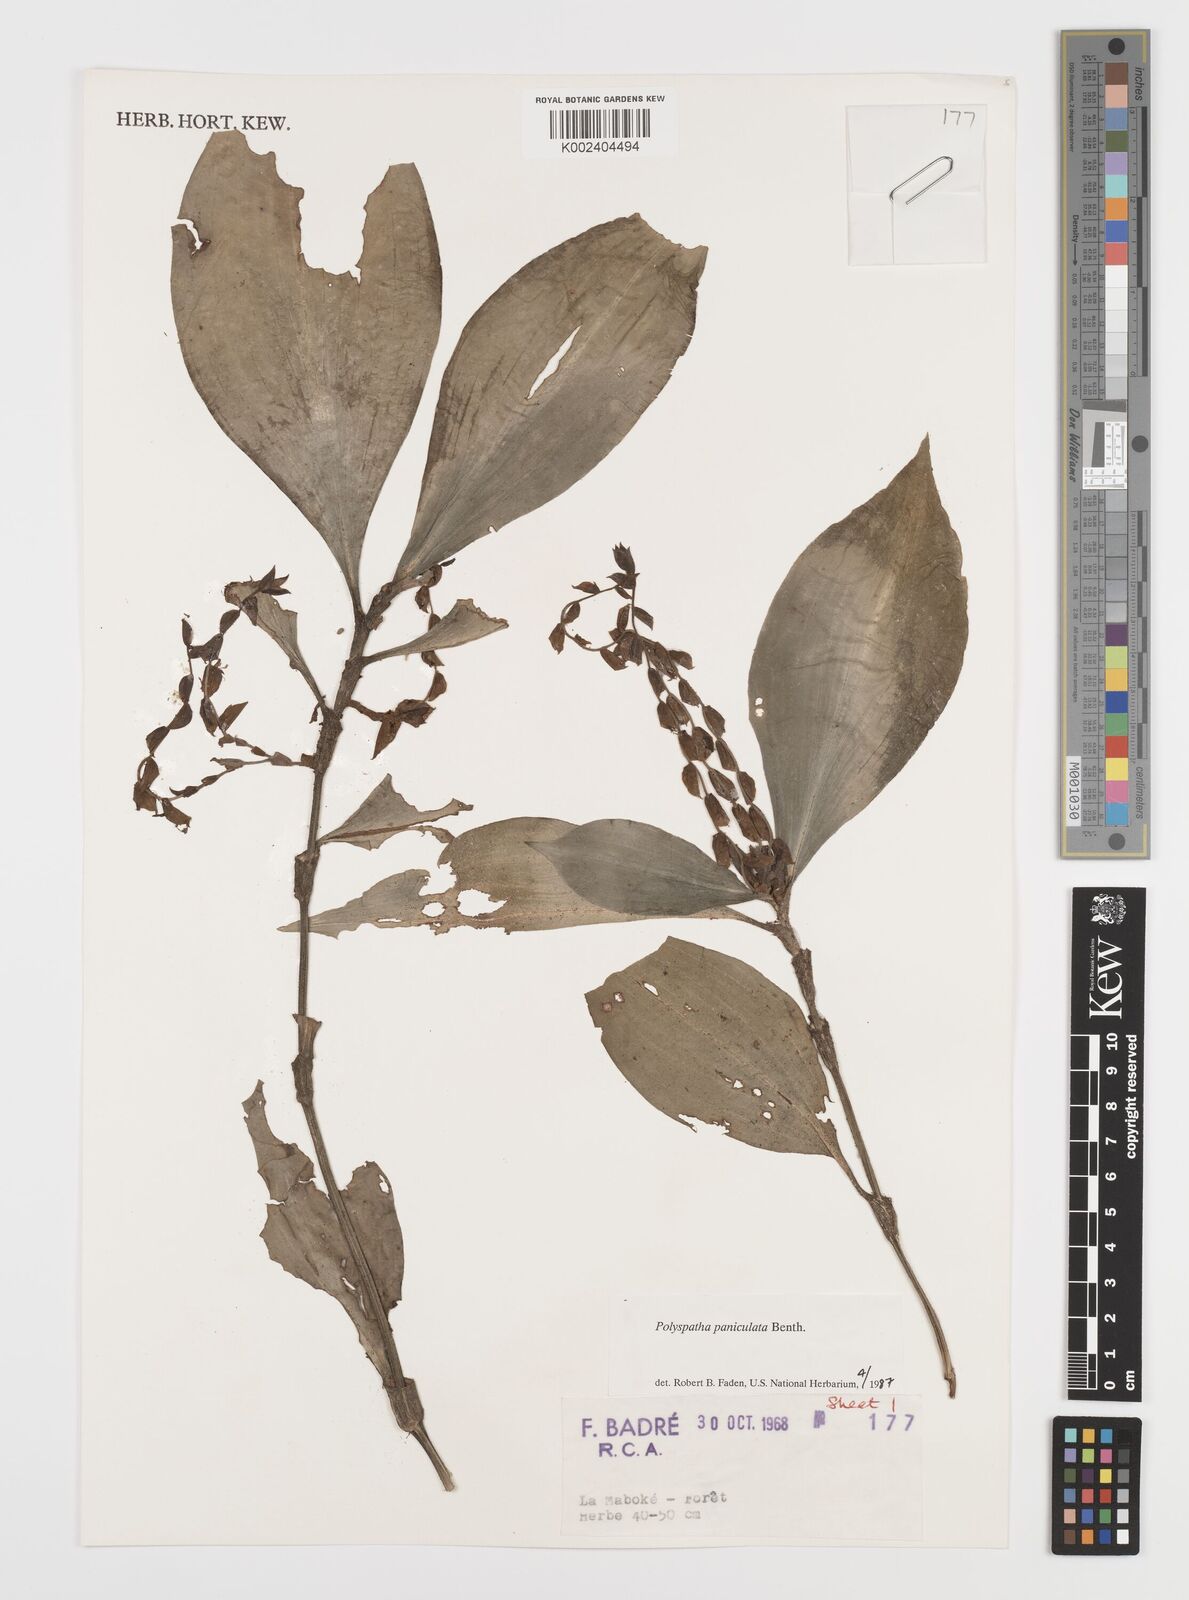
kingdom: Plantae
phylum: Tracheophyta
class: Liliopsida
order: Commelinales
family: Commelinaceae
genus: Polyspatha
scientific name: Polyspatha paniculata
